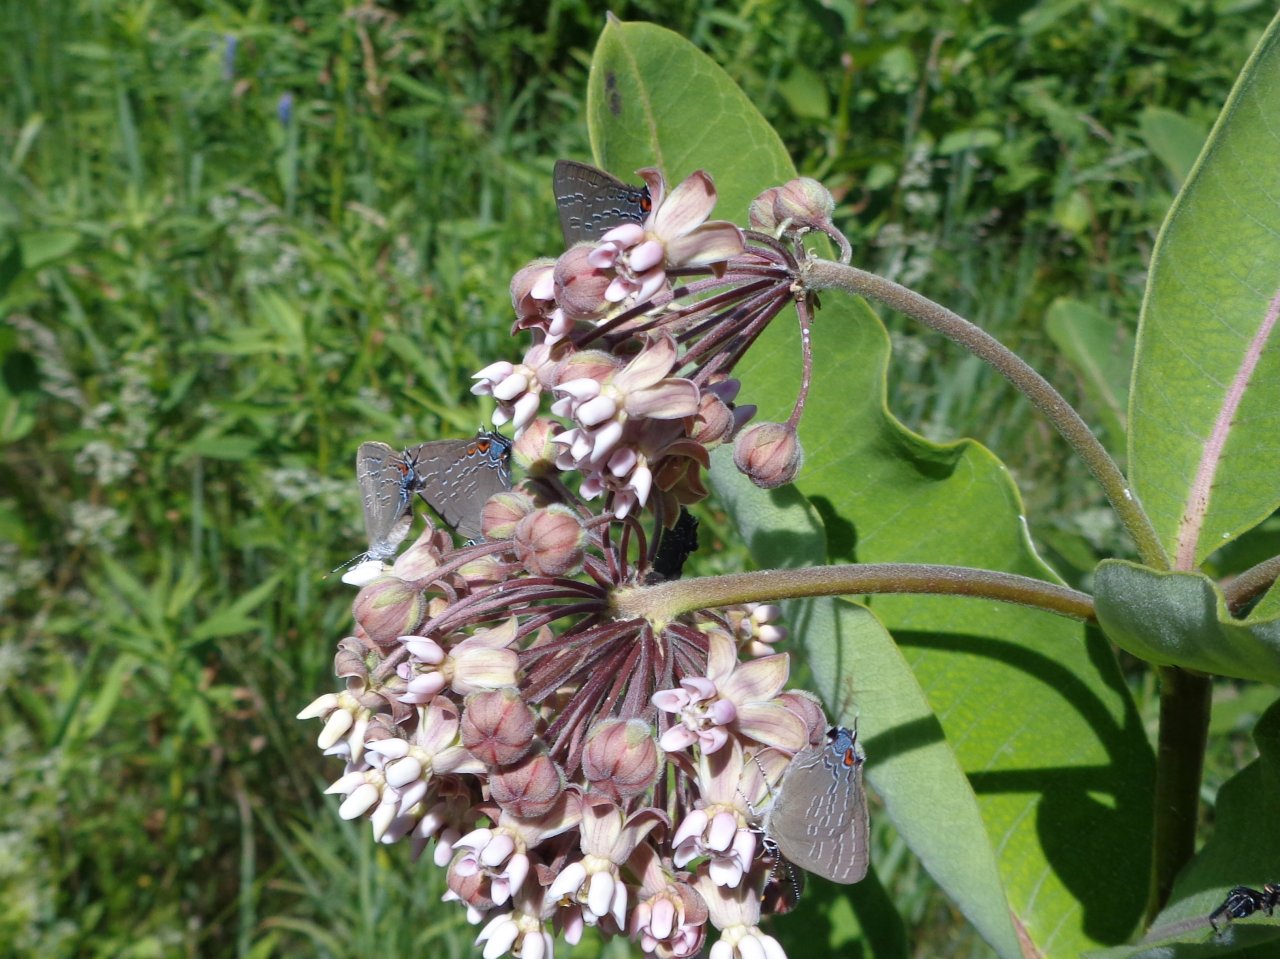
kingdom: Animalia
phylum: Arthropoda
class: Insecta
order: Lepidoptera
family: Lycaenidae
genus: Satyrium
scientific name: Satyrium calanus
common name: Banded Hairstreak
